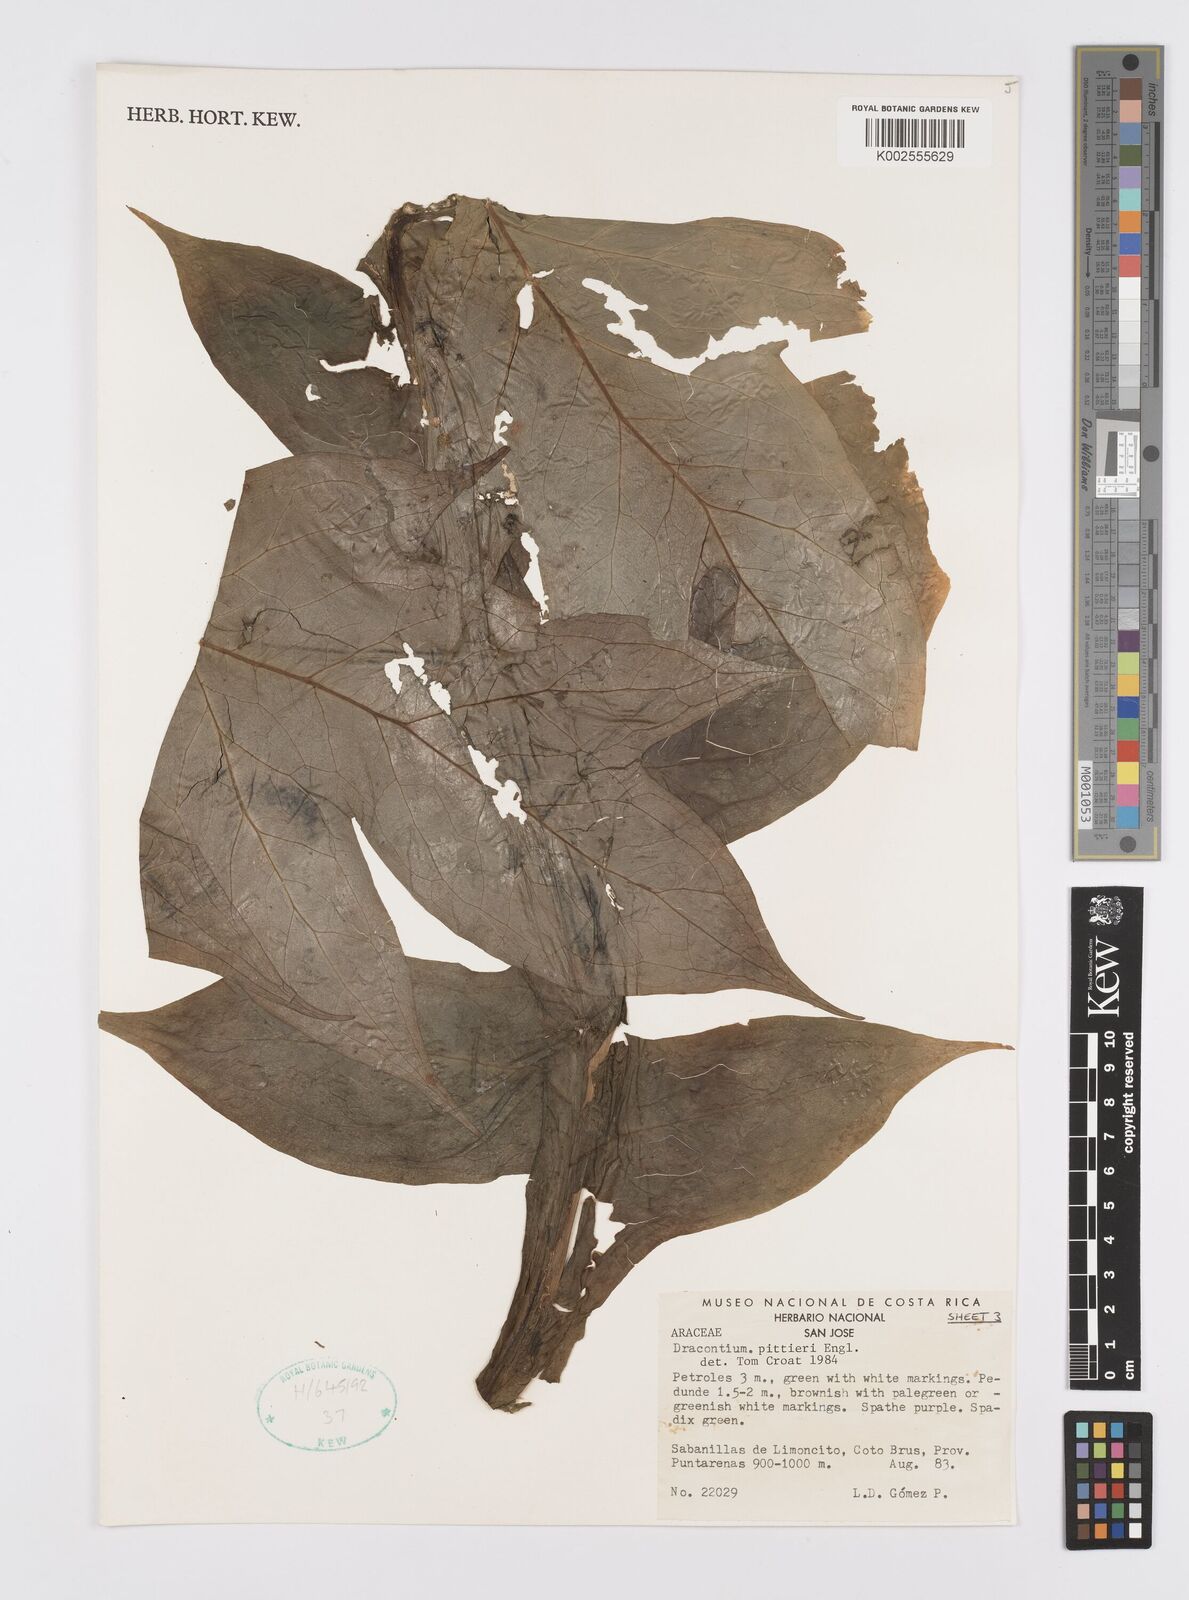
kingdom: Plantae
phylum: Tracheophyta
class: Liliopsida
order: Alismatales
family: Araceae
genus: Dracontium
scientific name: Dracontium pittieri
